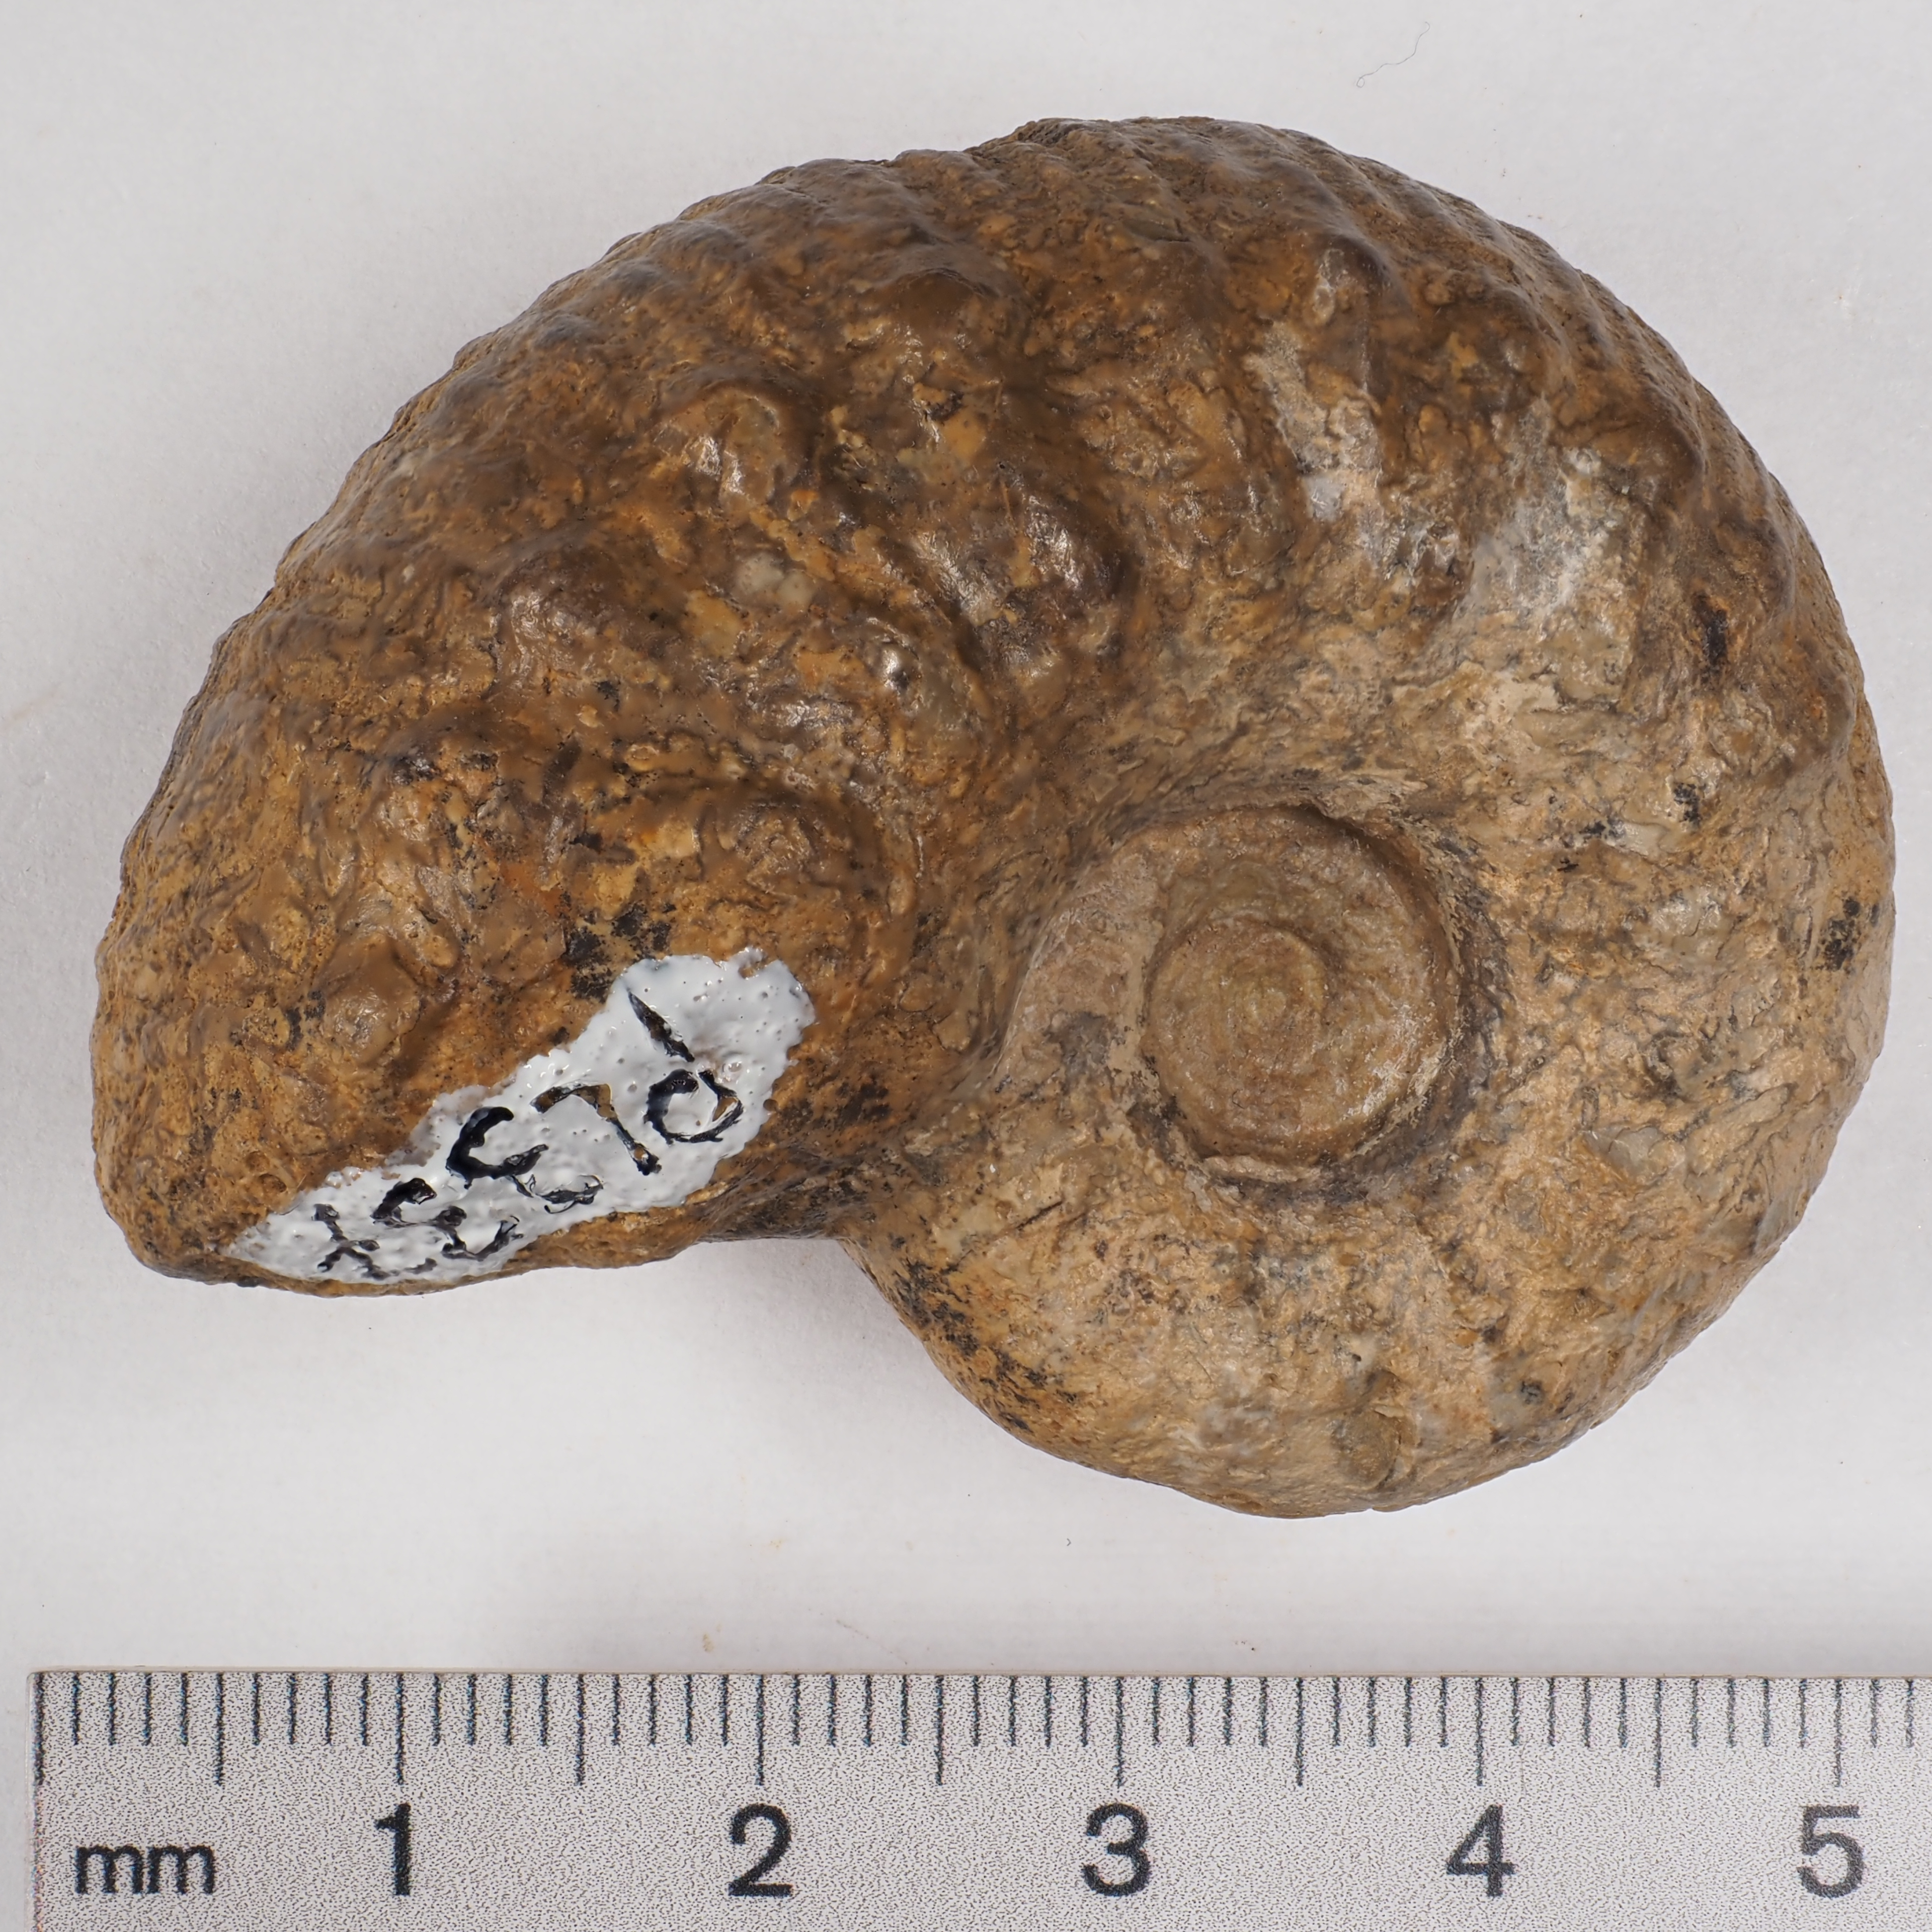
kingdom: Animalia
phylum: Mollusca
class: Cephalopoda
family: Liparoceratidae
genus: Liparoceras
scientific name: Liparoceras cheltiense
